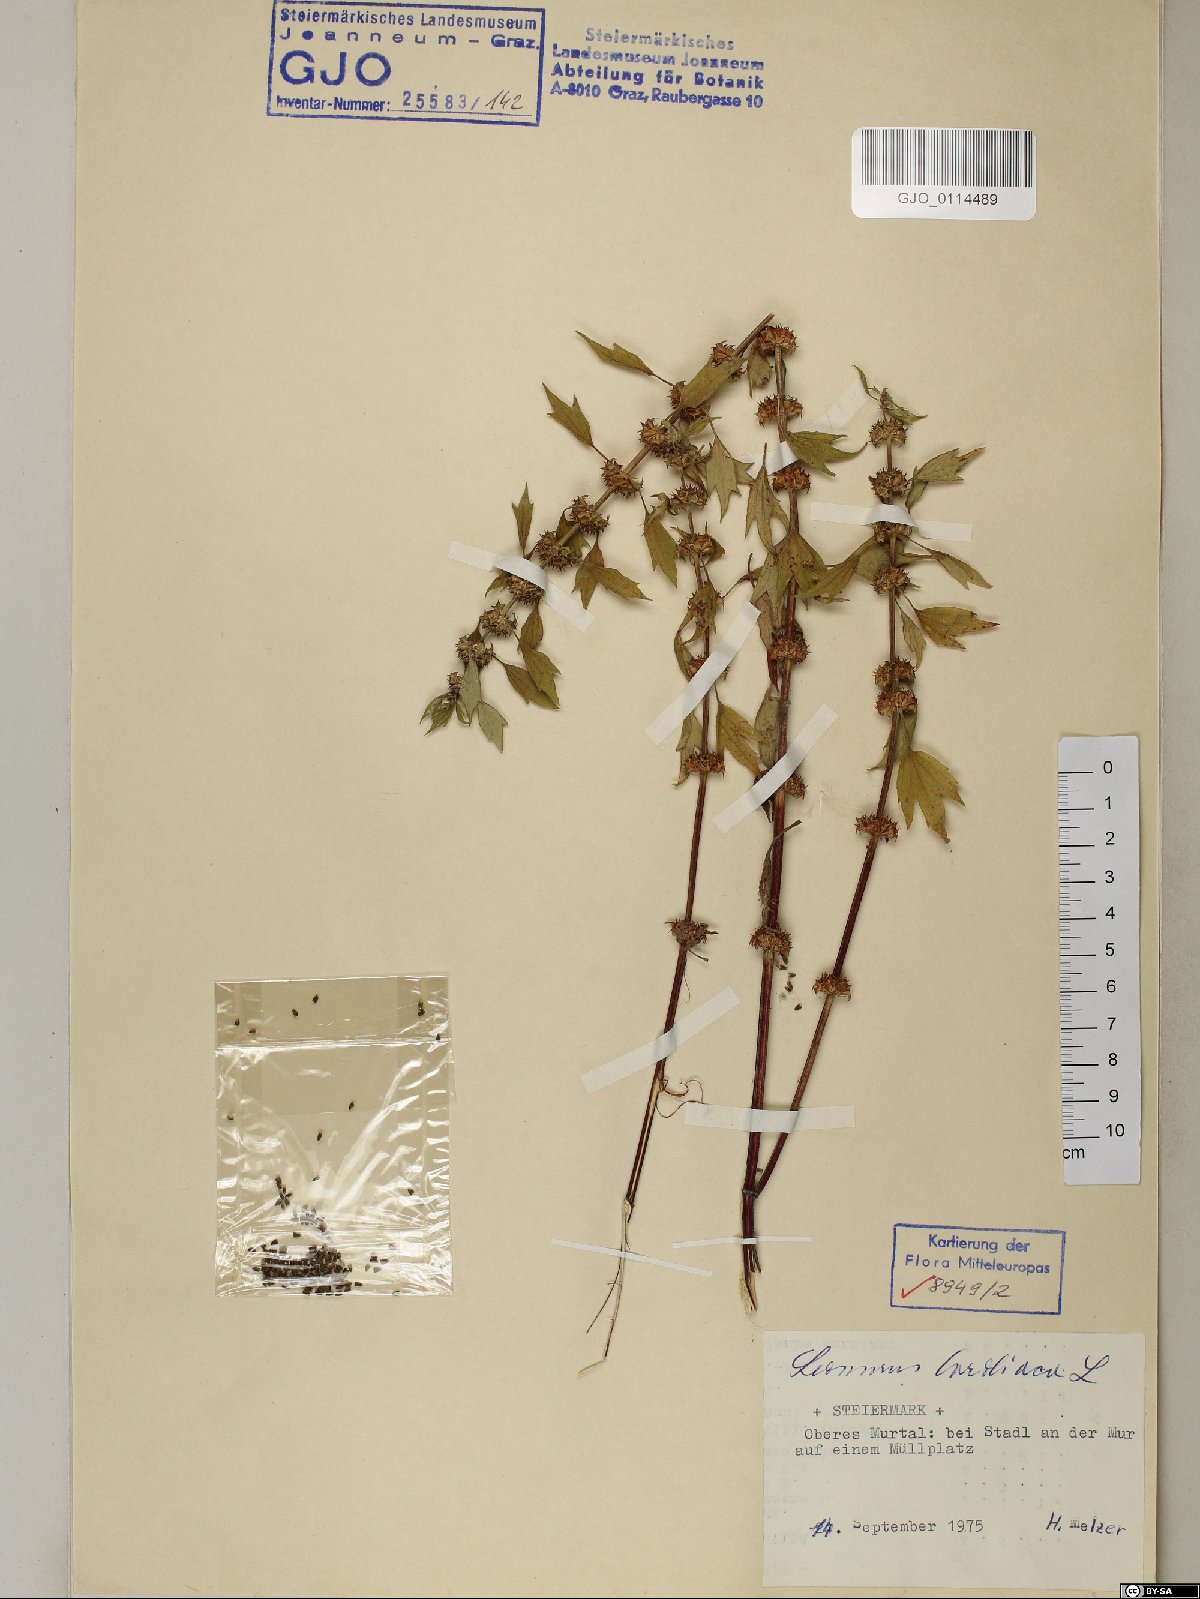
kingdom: Plantae
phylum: Tracheophyta
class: Magnoliopsida
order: Lamiales
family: Lamiaceae
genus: Leonurus
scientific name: Leonurus cardiaca
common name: Motherwort
